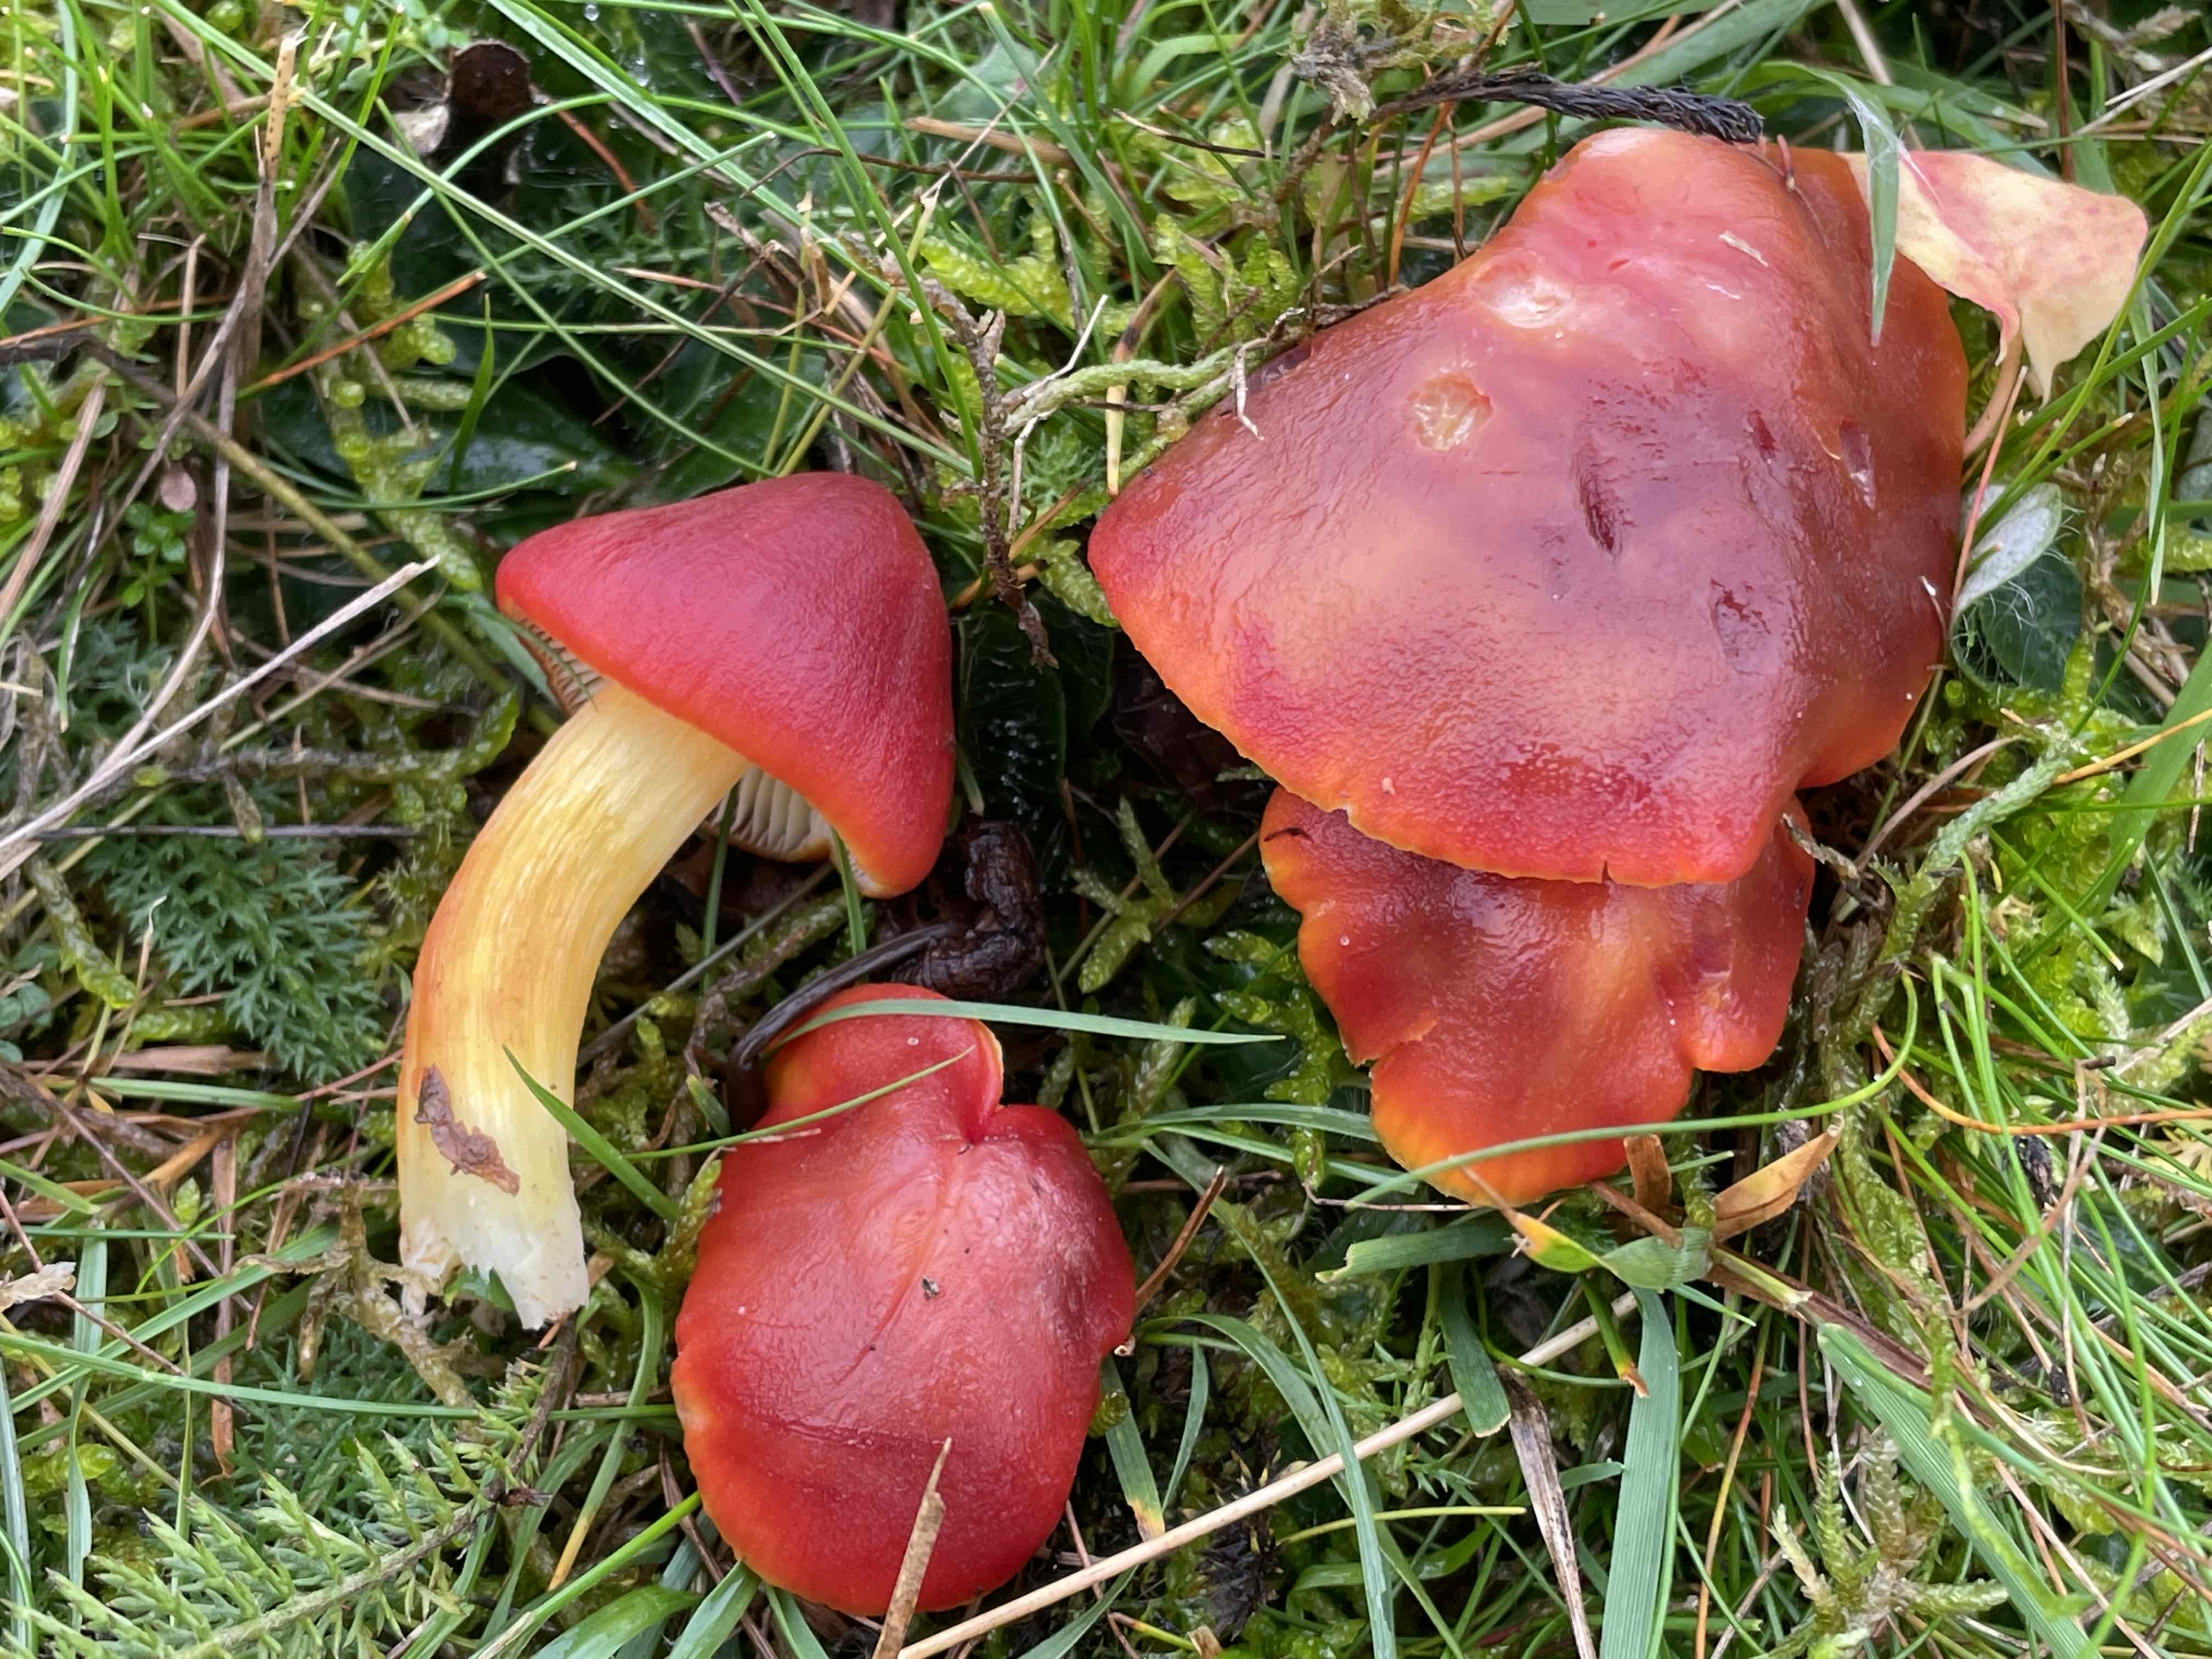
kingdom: Fungi
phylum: Basidiomycota
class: Agaricomycetes
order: Agaricales
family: Hygrophoraceae
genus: Hygrocybe
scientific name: Hygrocybe punicea
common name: skarlagen-vokshat
